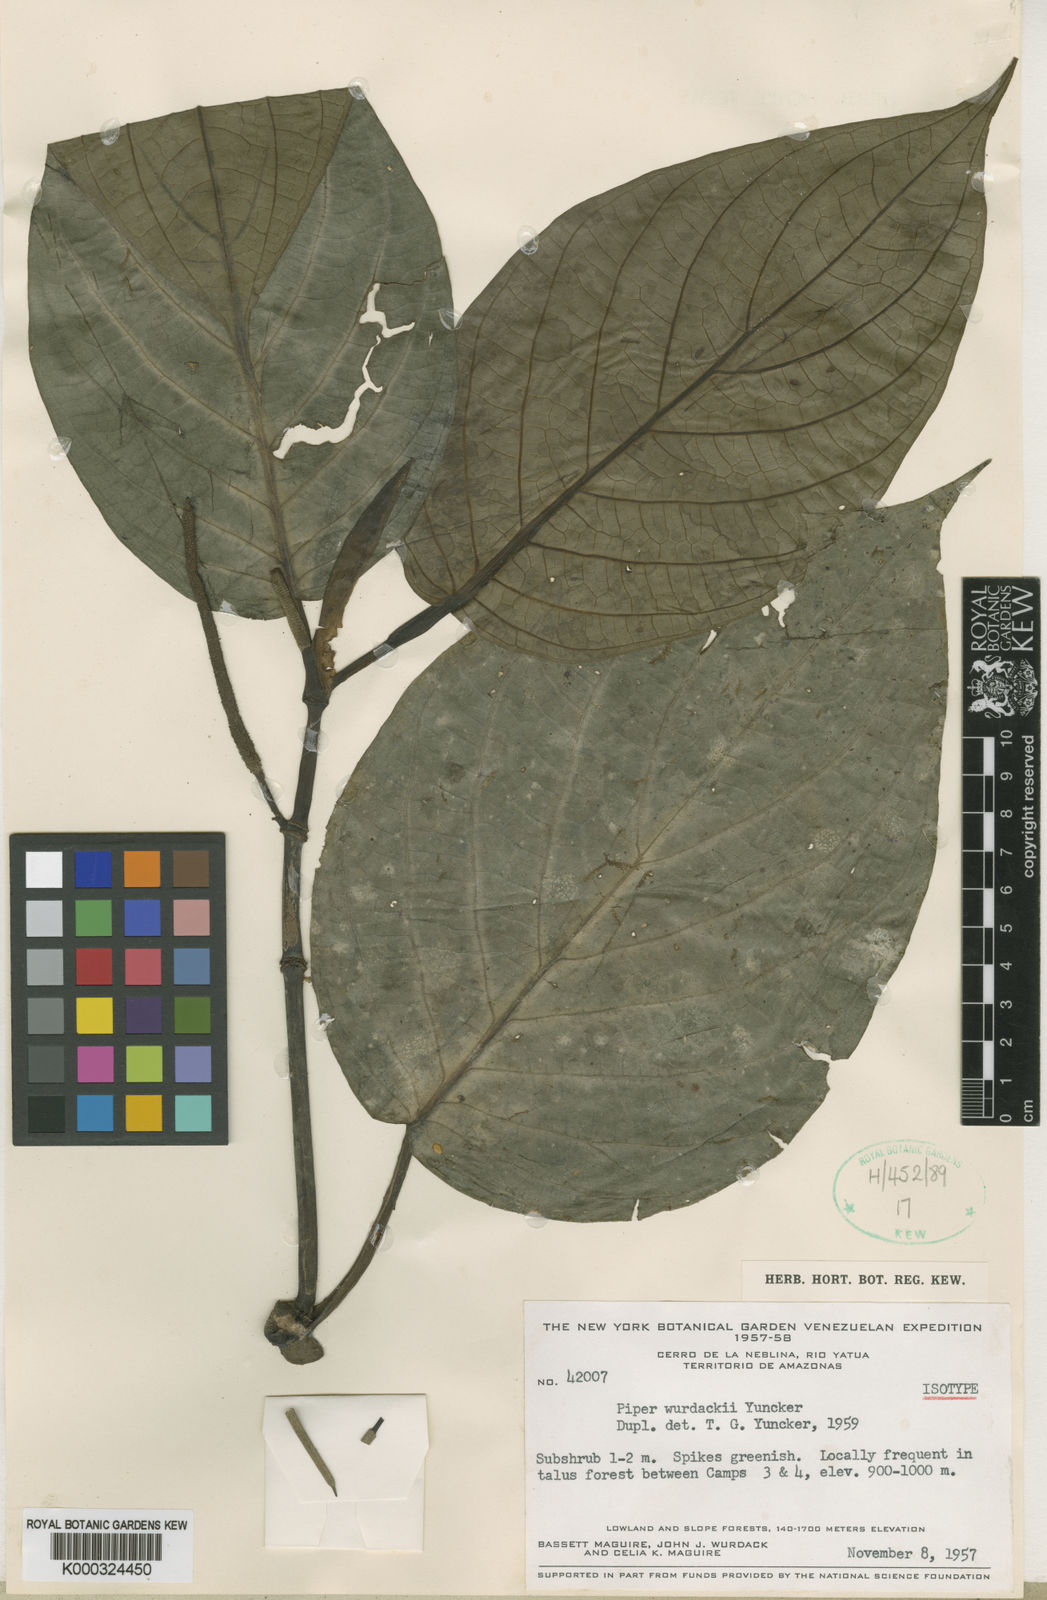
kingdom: Plantae
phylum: Tracheophyta
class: Magnoliopsida
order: Piperales
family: Piperaceae
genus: Piper
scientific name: Piper coruscans
